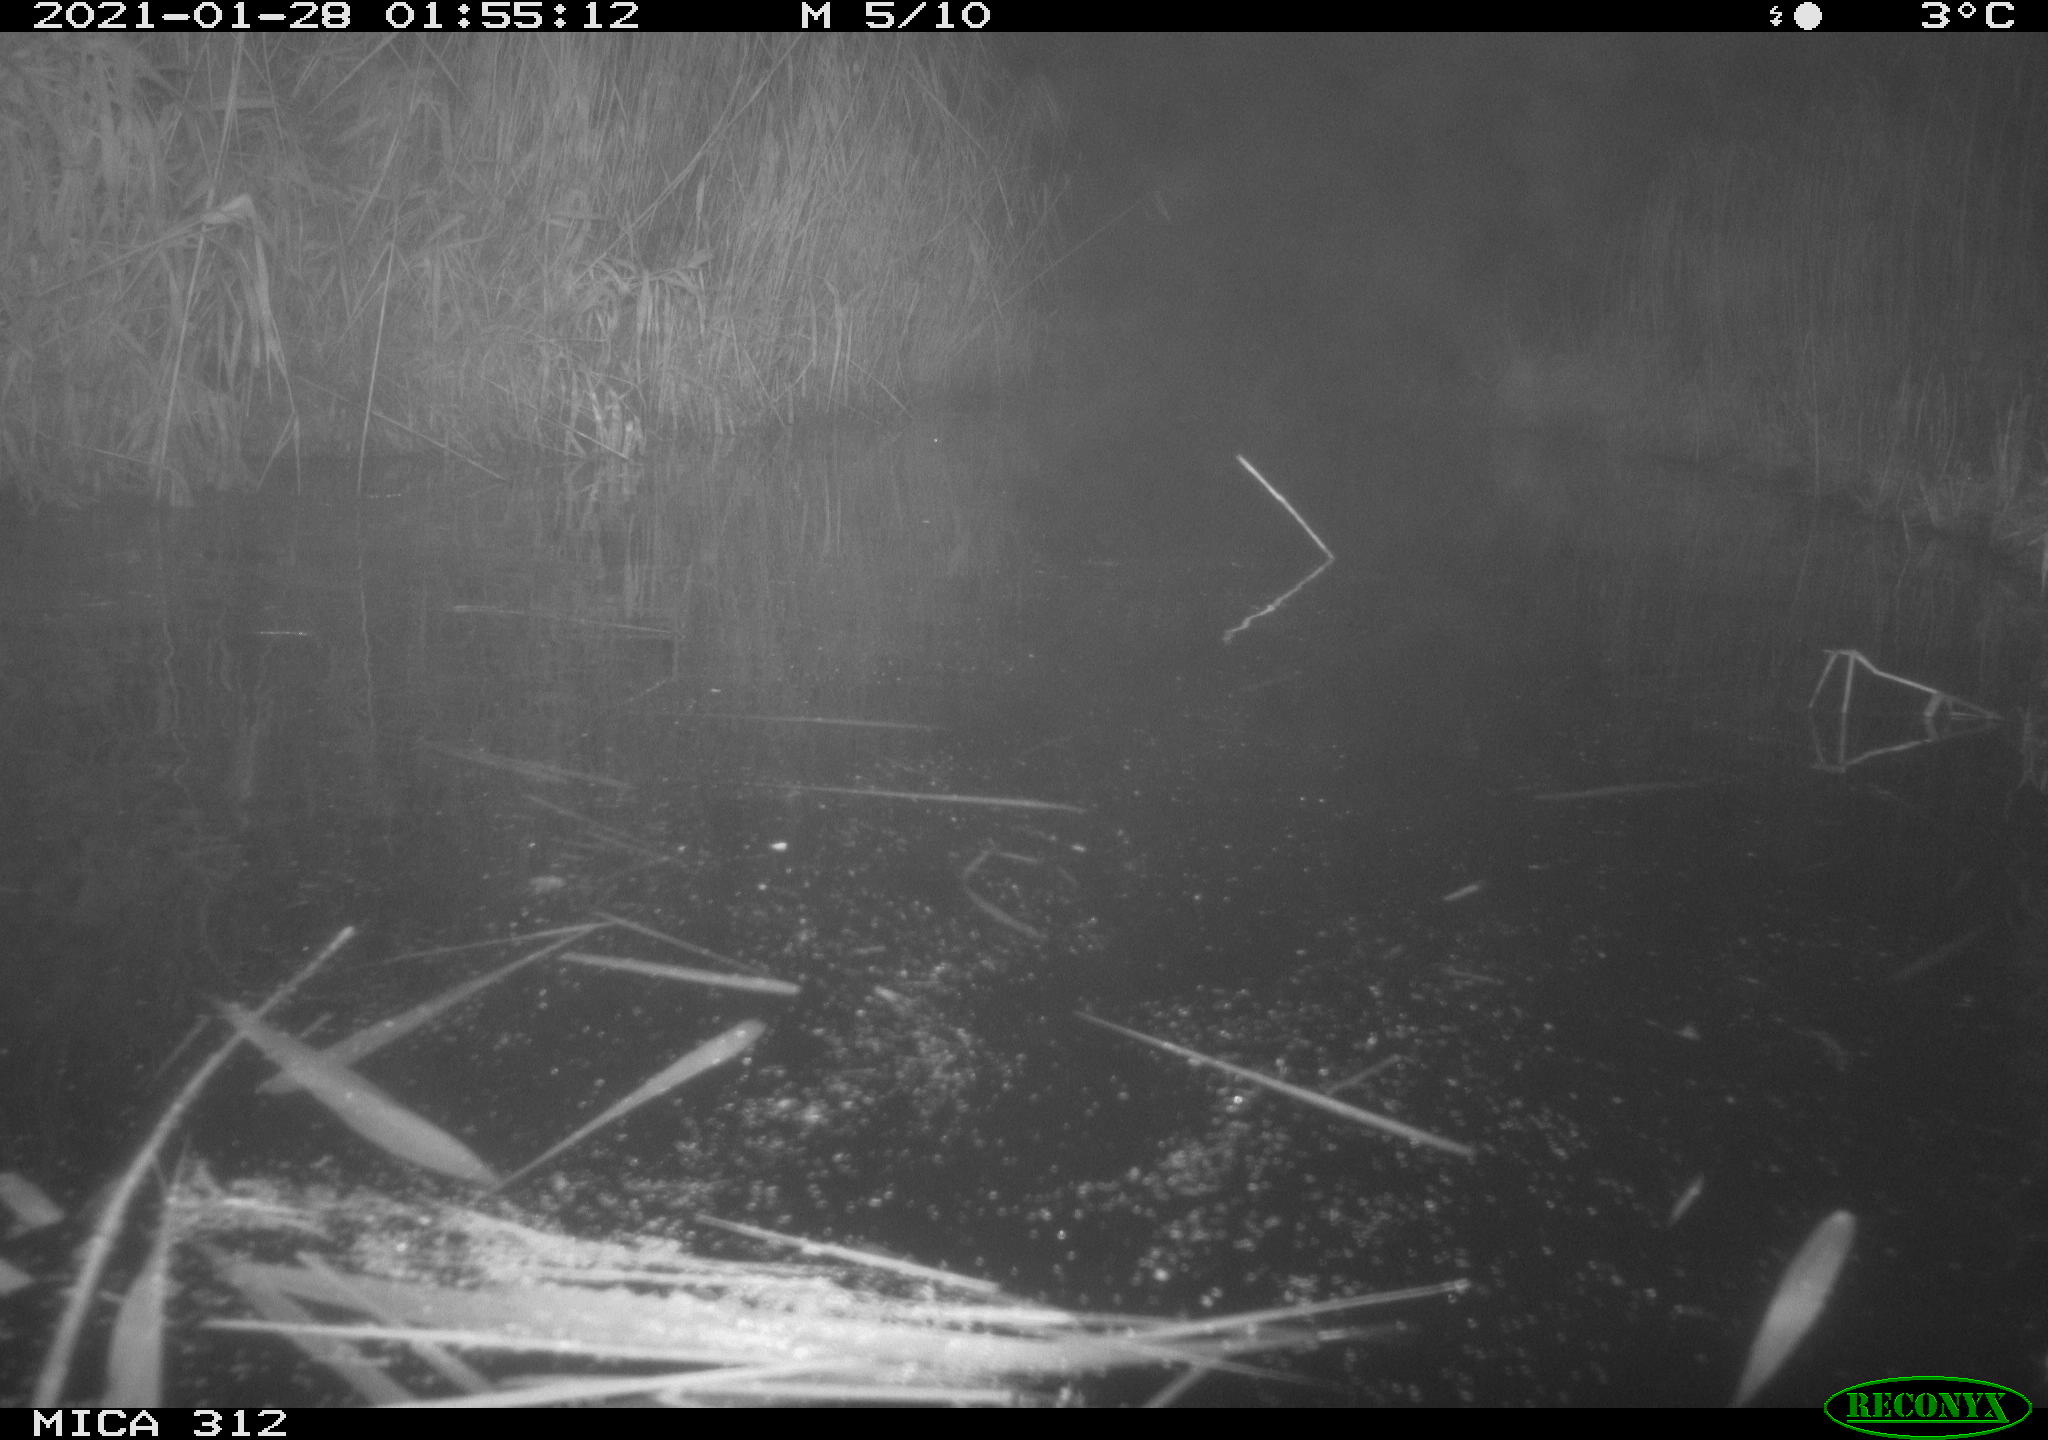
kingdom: Animalia
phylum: Chordata
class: Mammalia
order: Rodentia
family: Muridae
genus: Rattus
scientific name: Rattus norvegicus
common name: Brown rat
